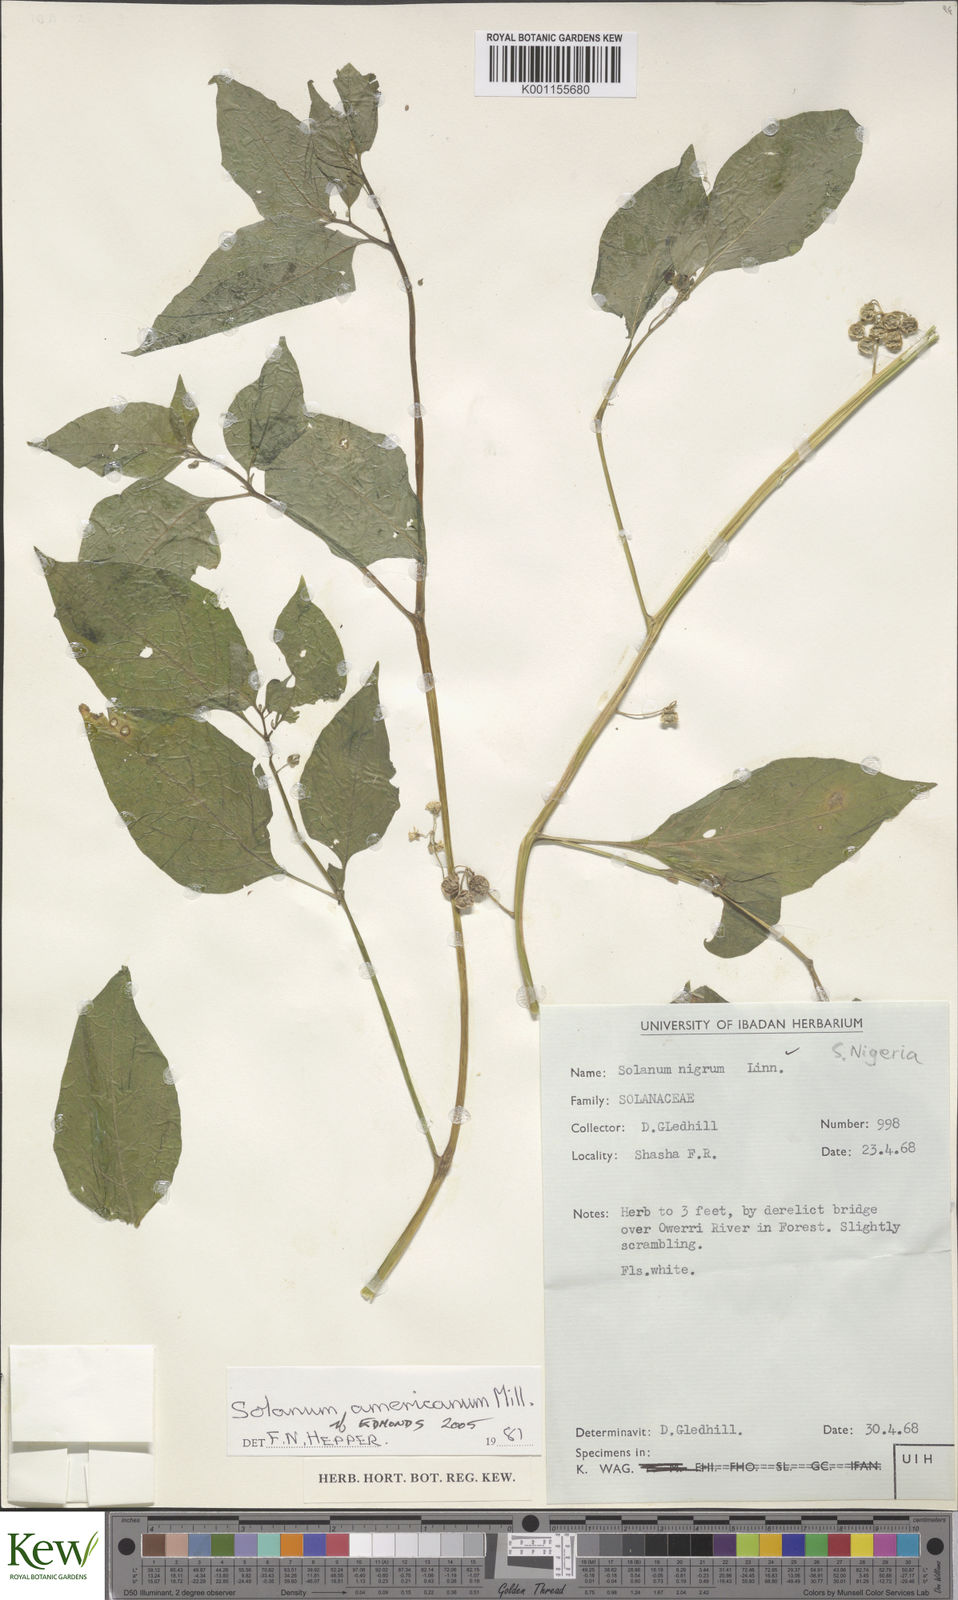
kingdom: Plantae
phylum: Tracheophyta
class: Magnoliopsida
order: Solanales
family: Solanaceae
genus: Solanum
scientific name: Solanum tarderemotum
